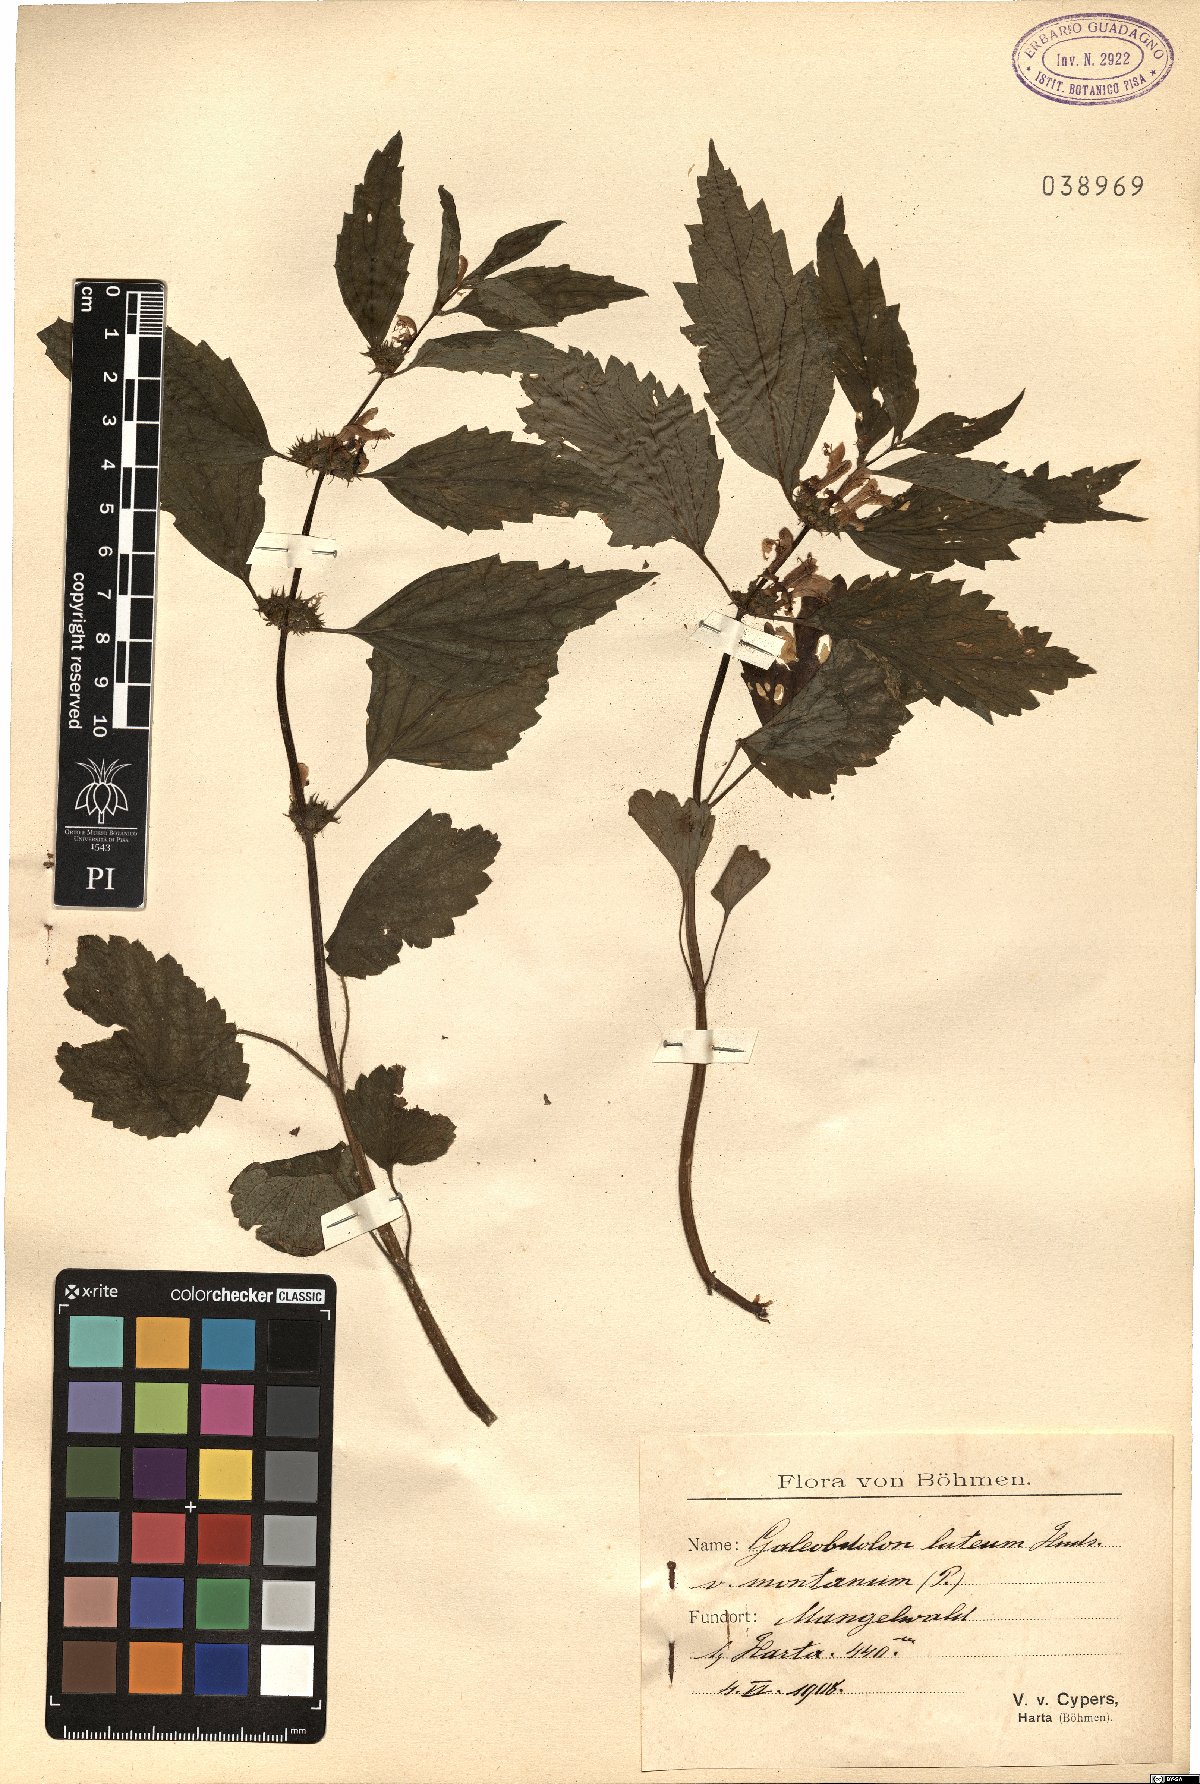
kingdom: Plantae
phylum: Tracheophyta
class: Magnoliopsida
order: Lamiales
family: Lamiaceae
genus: Lamium
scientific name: Lamium galeobdolon
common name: Yellow archangel
